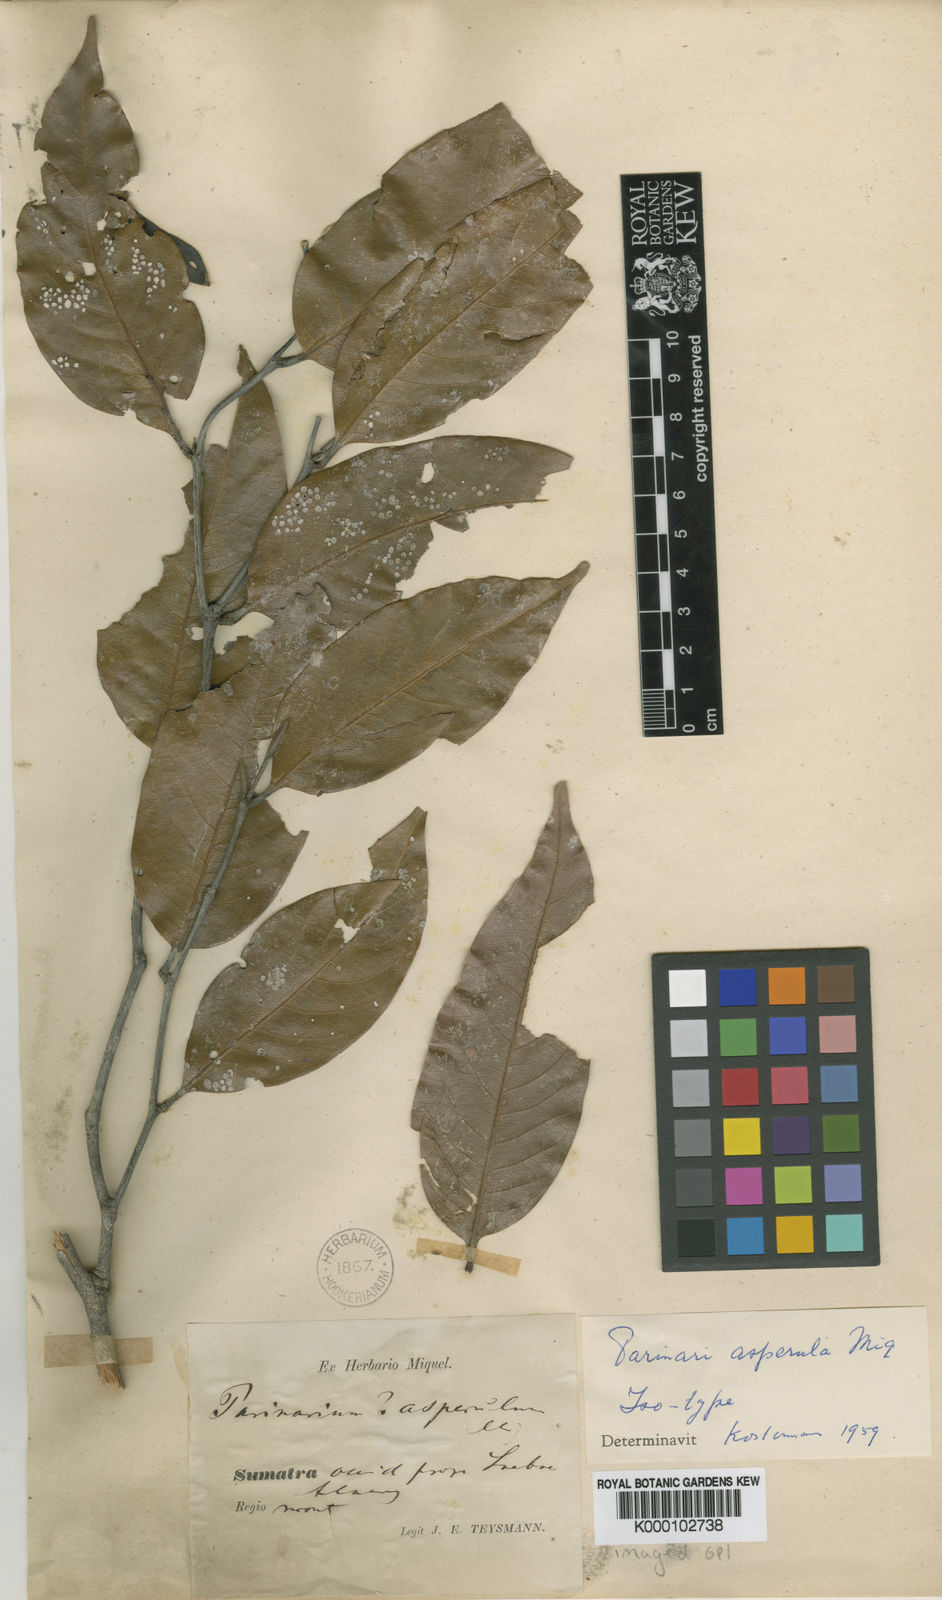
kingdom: Plantae
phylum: Tracheophyta
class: Magnoliopsida
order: Malpighiales
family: Chrysobalanaceae
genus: Atuna
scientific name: Atuna excelsa
